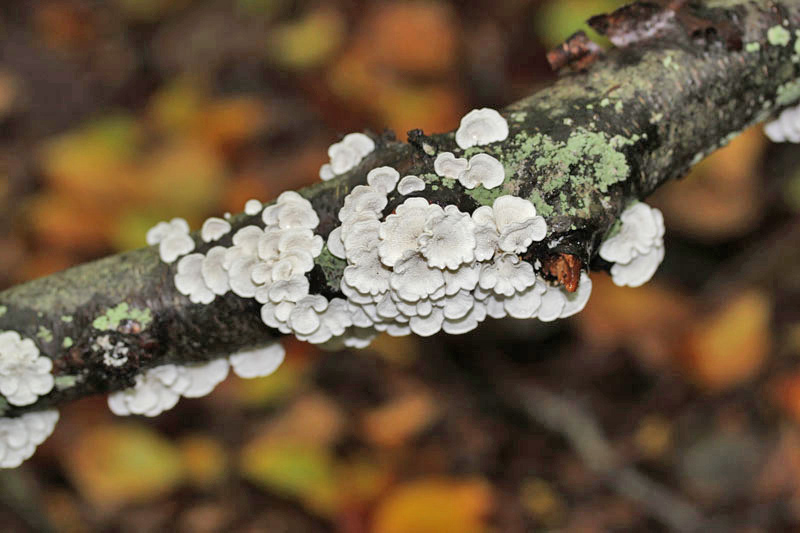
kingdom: Fungi
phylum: Basidiomycota
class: Agaricomycetes
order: Amylocorticiales
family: Amylocorticiaceae
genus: Plicaturopsis
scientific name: Plicaturopsis crispa
